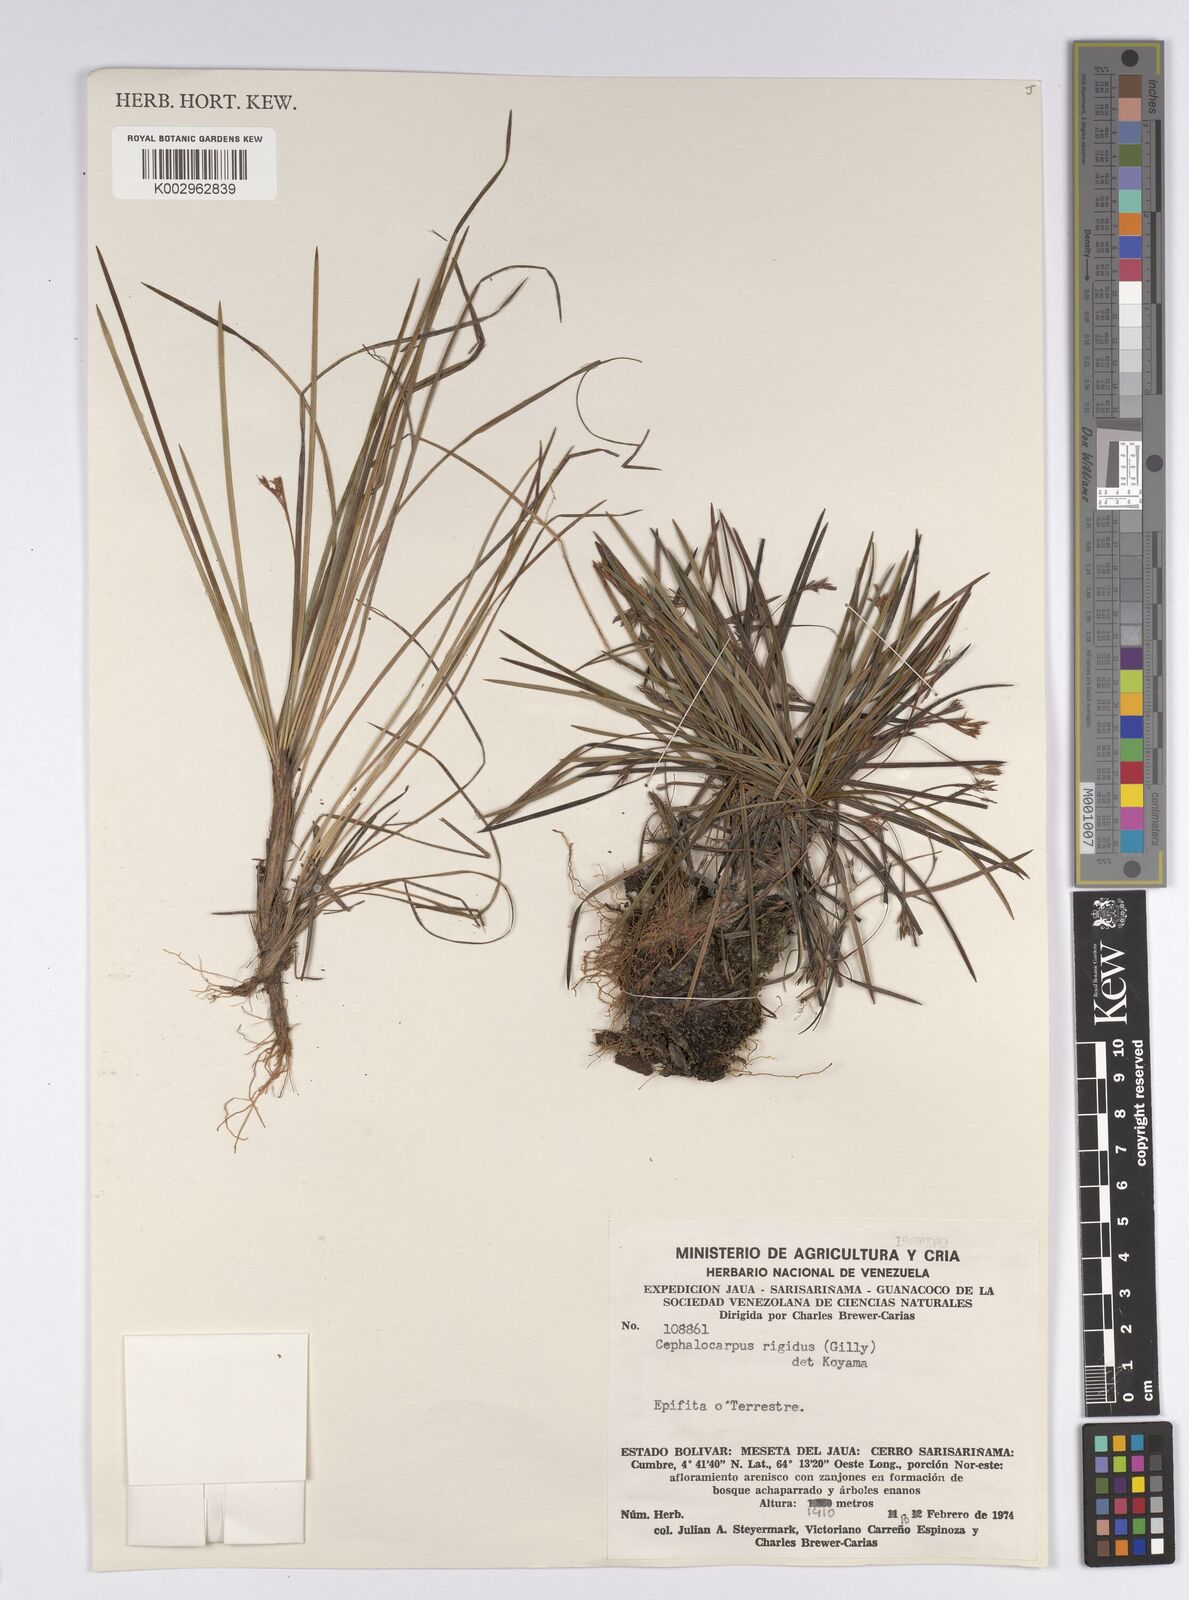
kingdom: Plantae
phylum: Tracheophyta
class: Liliopsida
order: Poales
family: Cyperaceae
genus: Cephalocarpus
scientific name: Cephalocarpus rigidus
